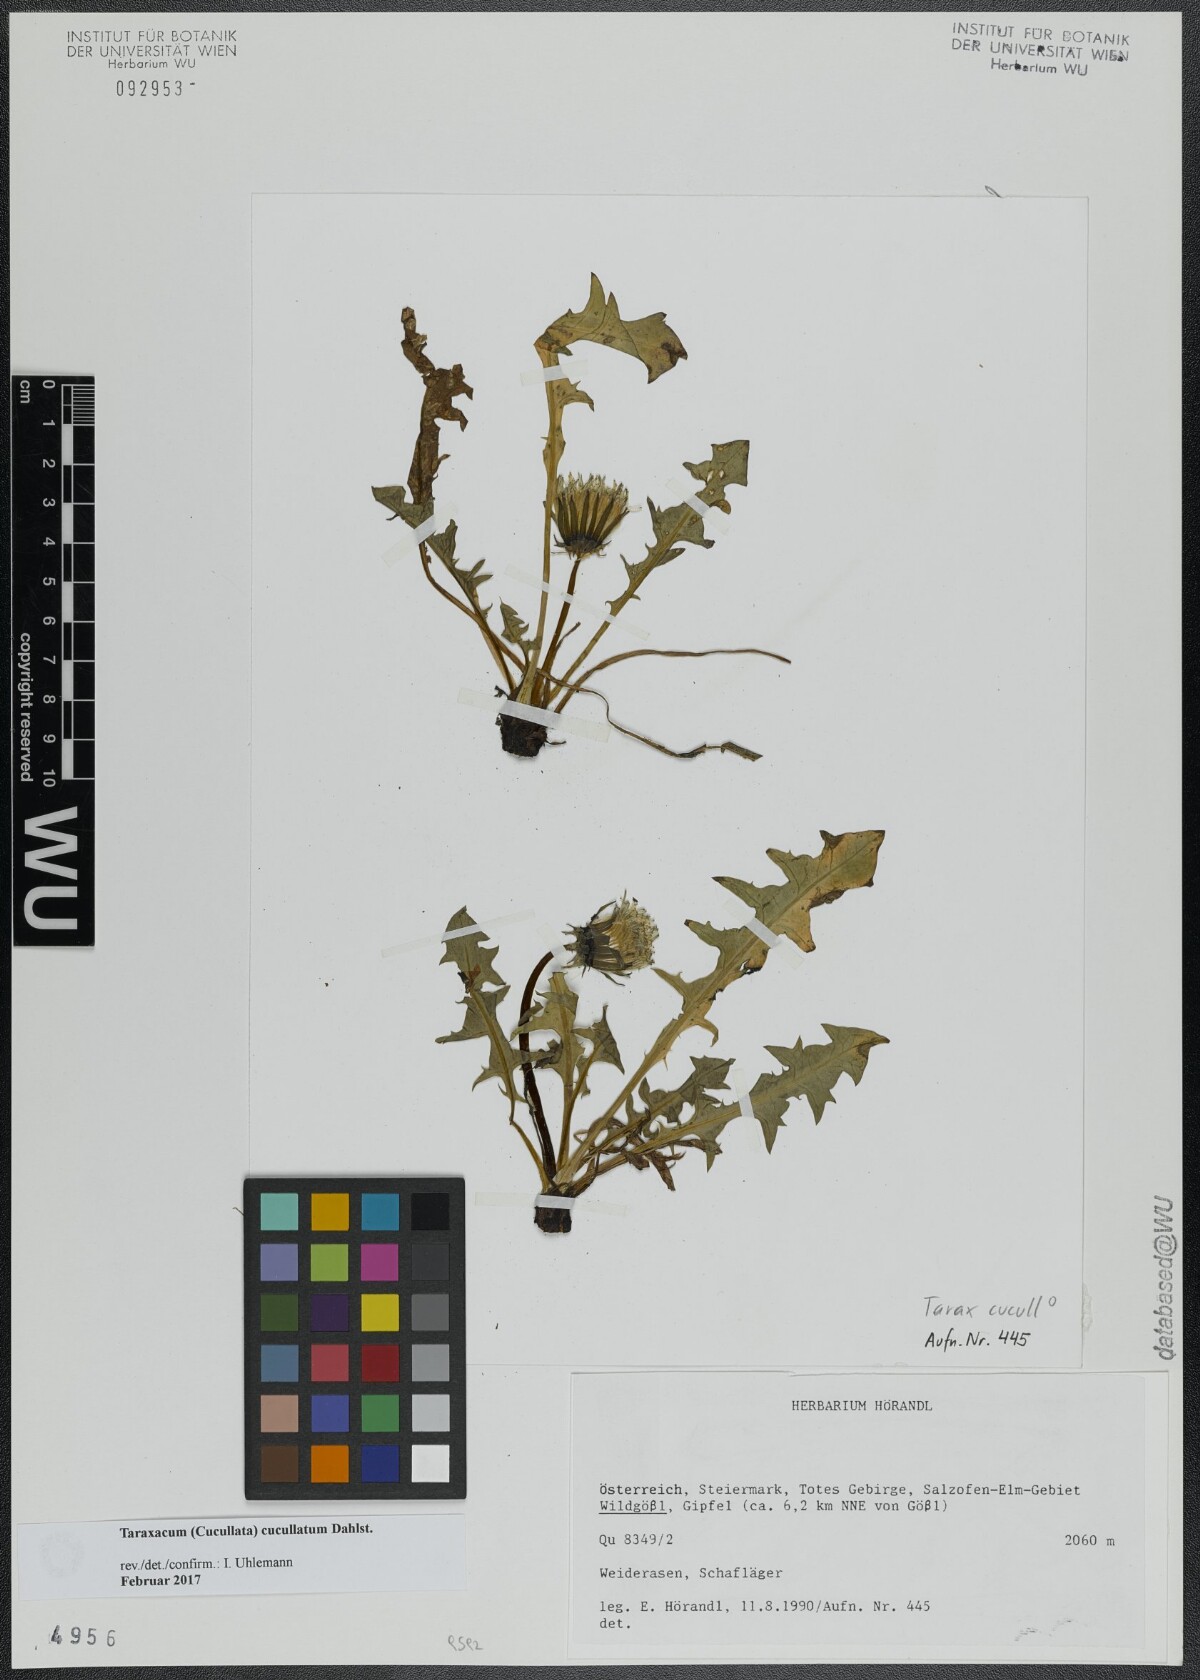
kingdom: Plantae
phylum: Tracheophyta
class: Magnoliopsida
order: Asterales
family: Asteraceae
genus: Taraxacum
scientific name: Taraxacum cucullatum
